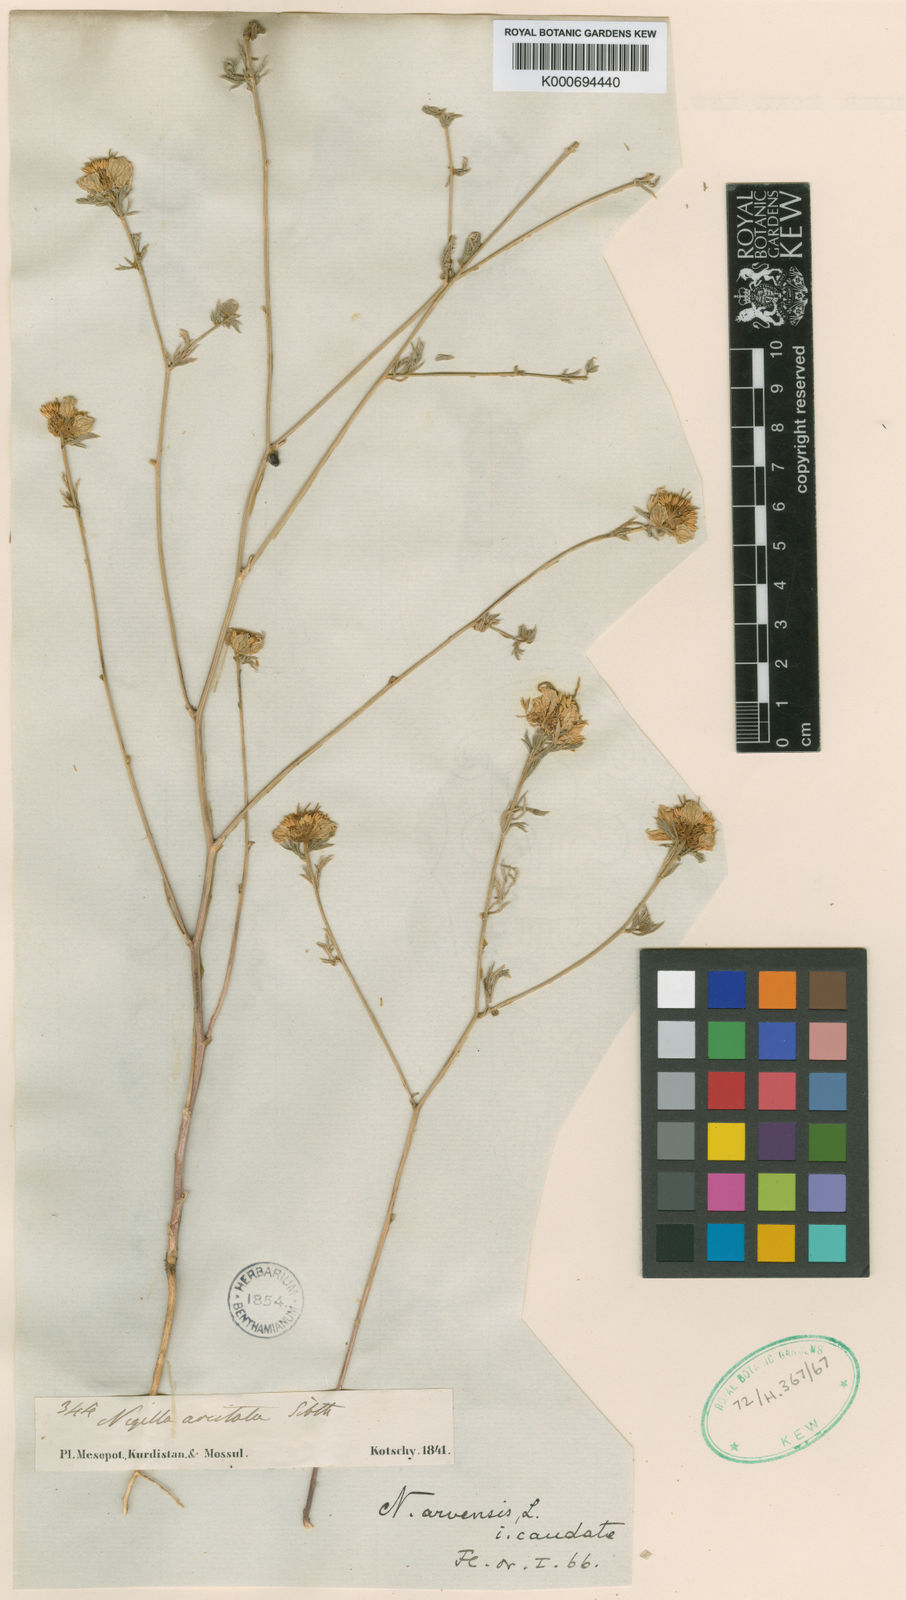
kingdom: Plantae
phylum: Tracheophyta
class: Magnoliopsida
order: Ranunculales
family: Ranunculaceae
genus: Nigella
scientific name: Nigella deserti
